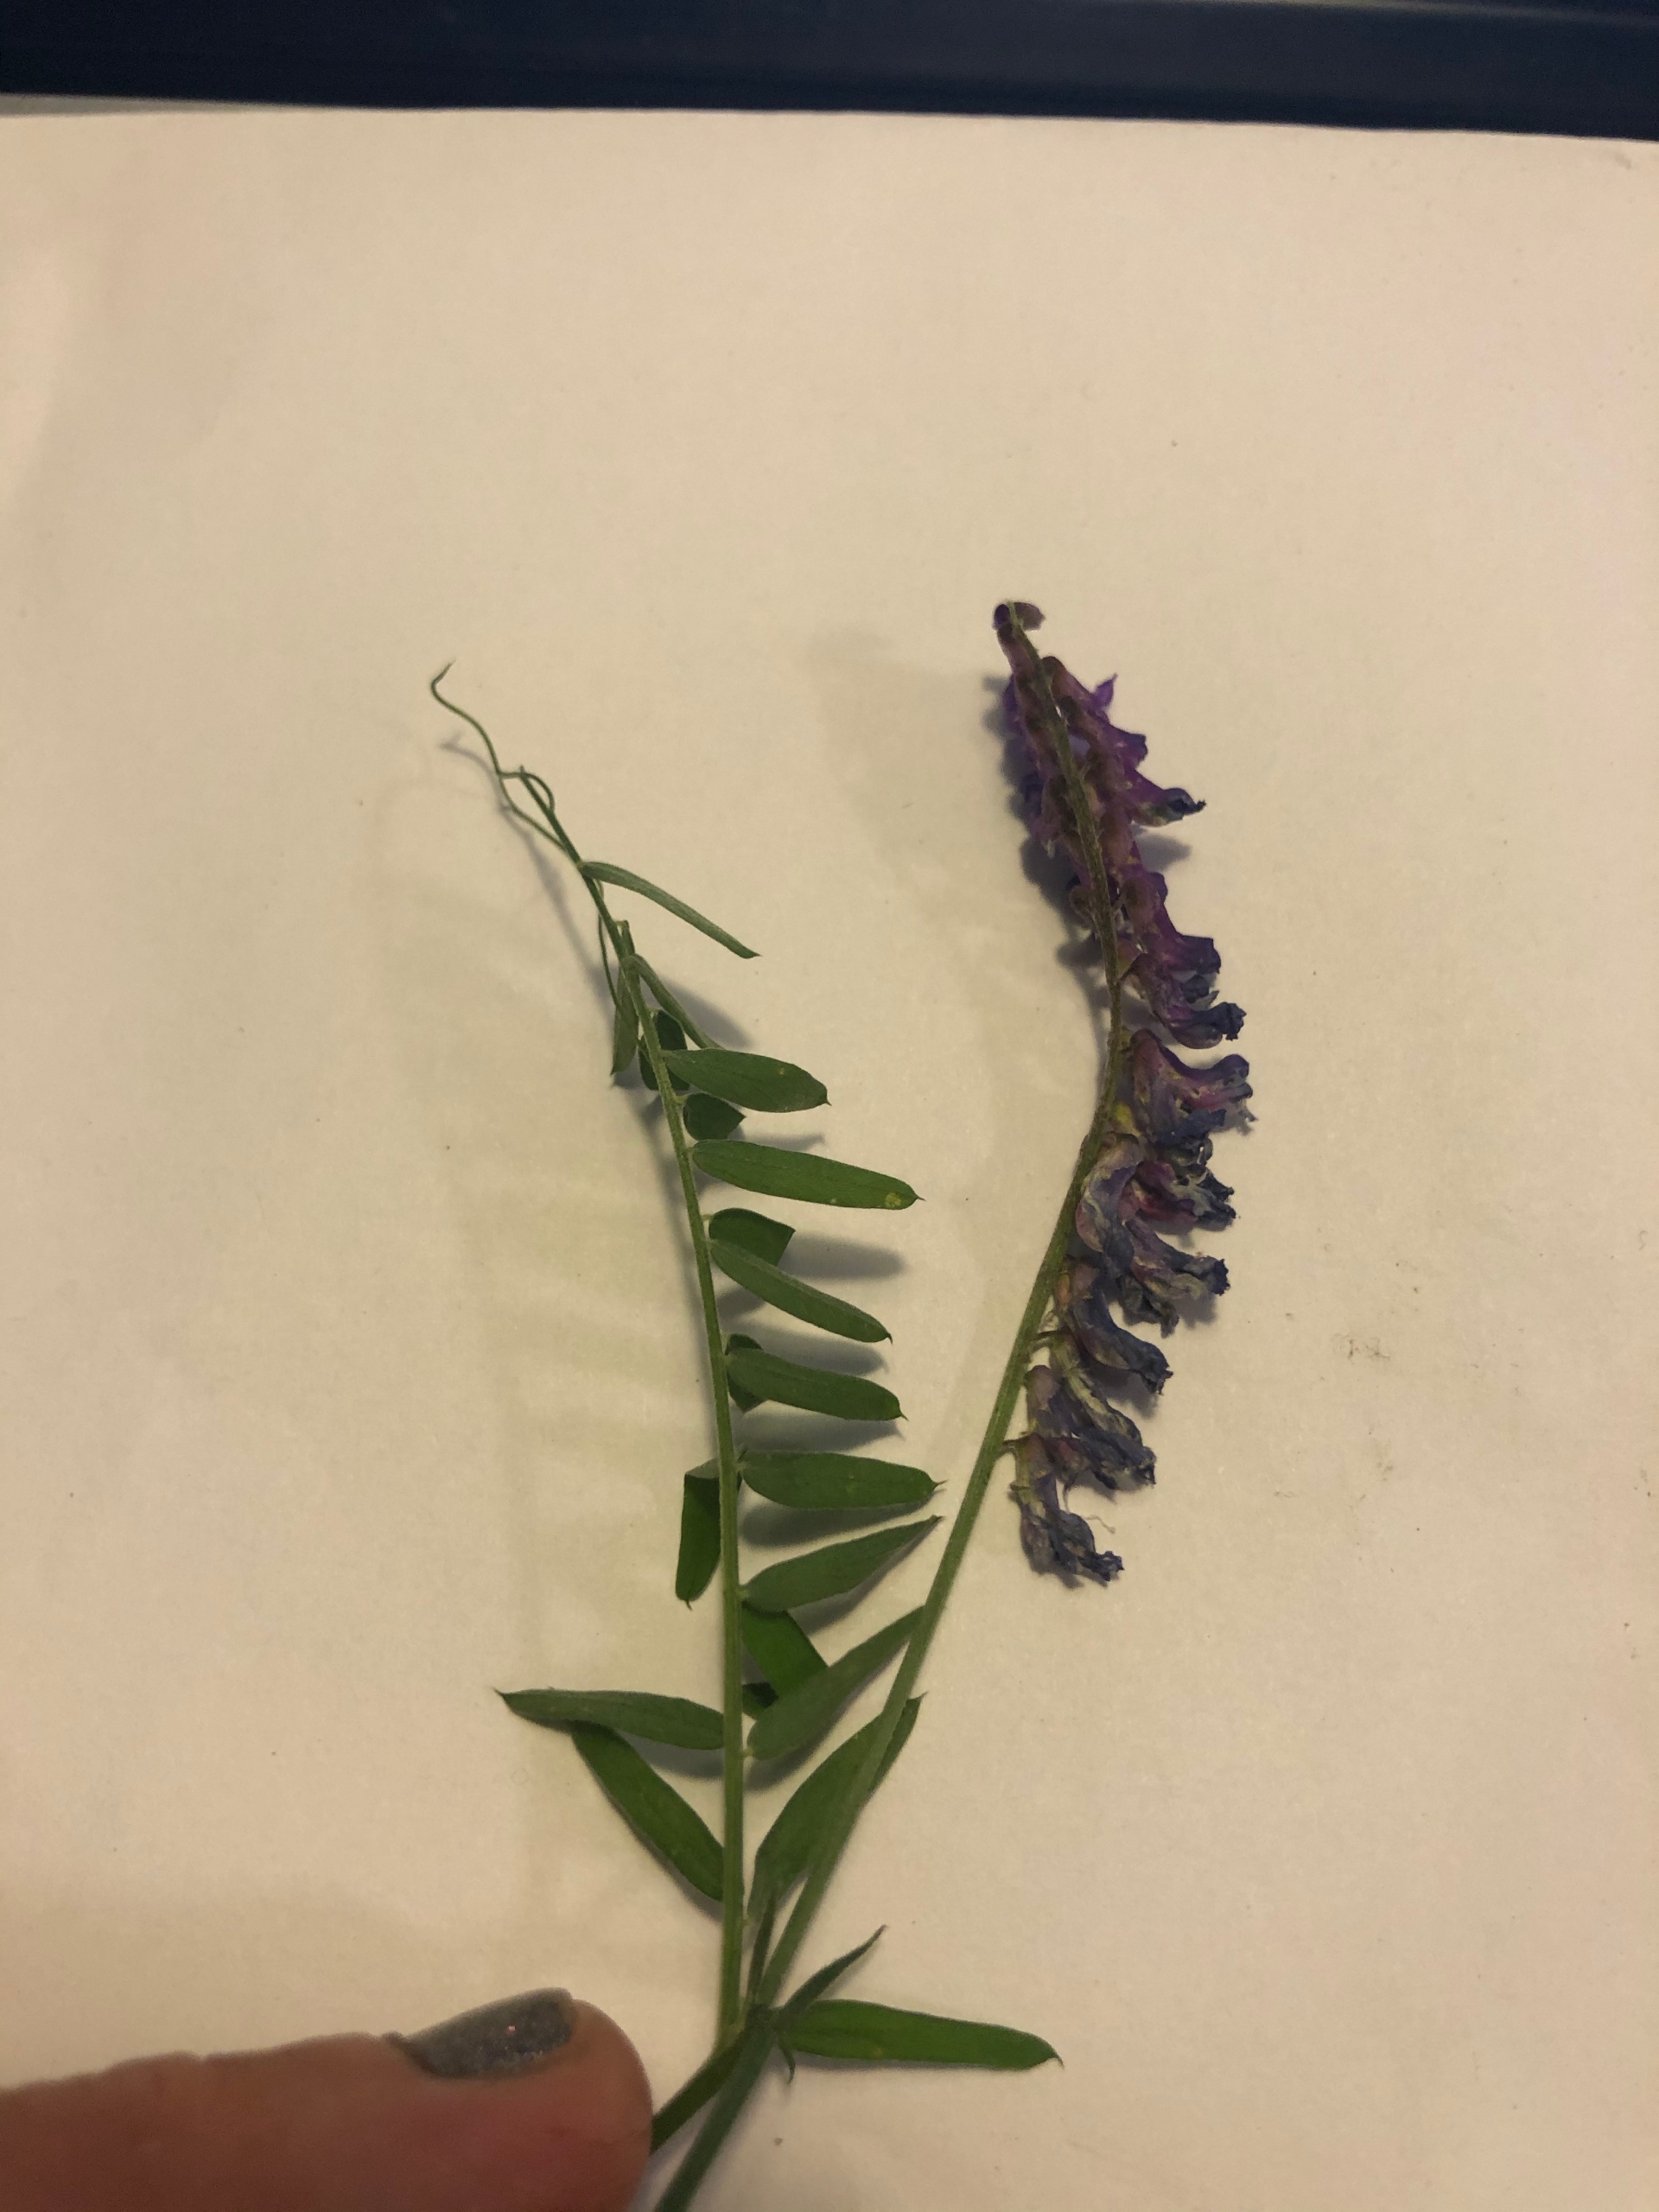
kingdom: Plantae
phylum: Tracheophyta
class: Magnoliopsida
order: Fabales
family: Fabaceae
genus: Vicia
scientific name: Vicia cracca
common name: Muse-vikke
